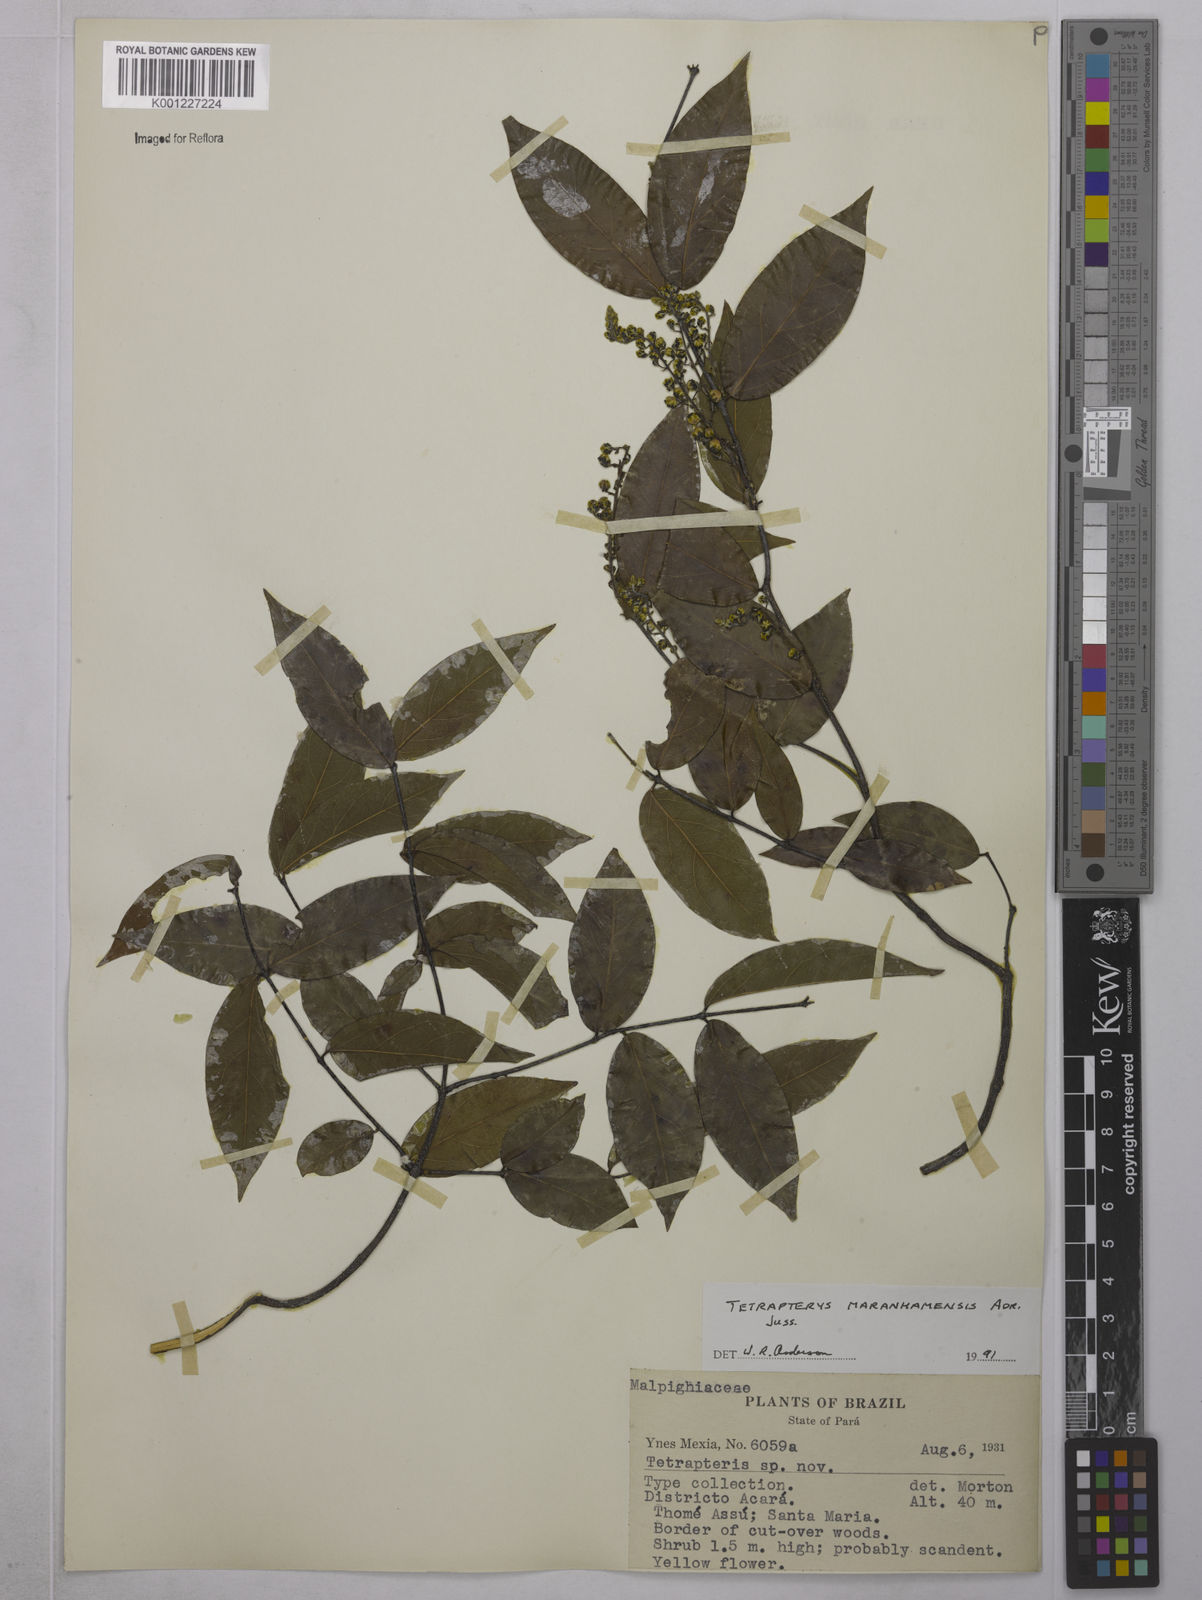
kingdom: Plantae
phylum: Tracheophyta
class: Magnoliopsida
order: Malpighiales
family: Malpighiaceae
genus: Glicophyllum
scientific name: Glicophyllum maranhamense
